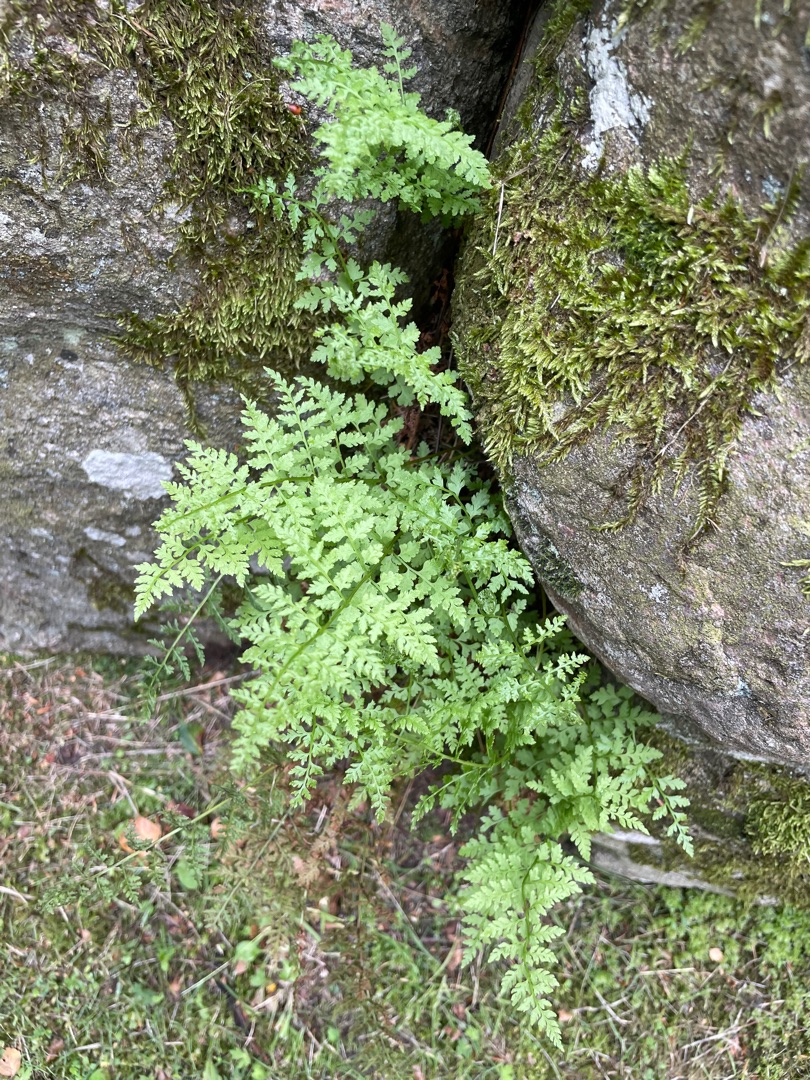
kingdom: Plantae
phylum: Tracheophyta
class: Polypodiopsida
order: Polypodiales
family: Cystopteridaceae
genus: Cystopteris
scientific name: Cystopteris fragilis
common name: Bægerbregne
